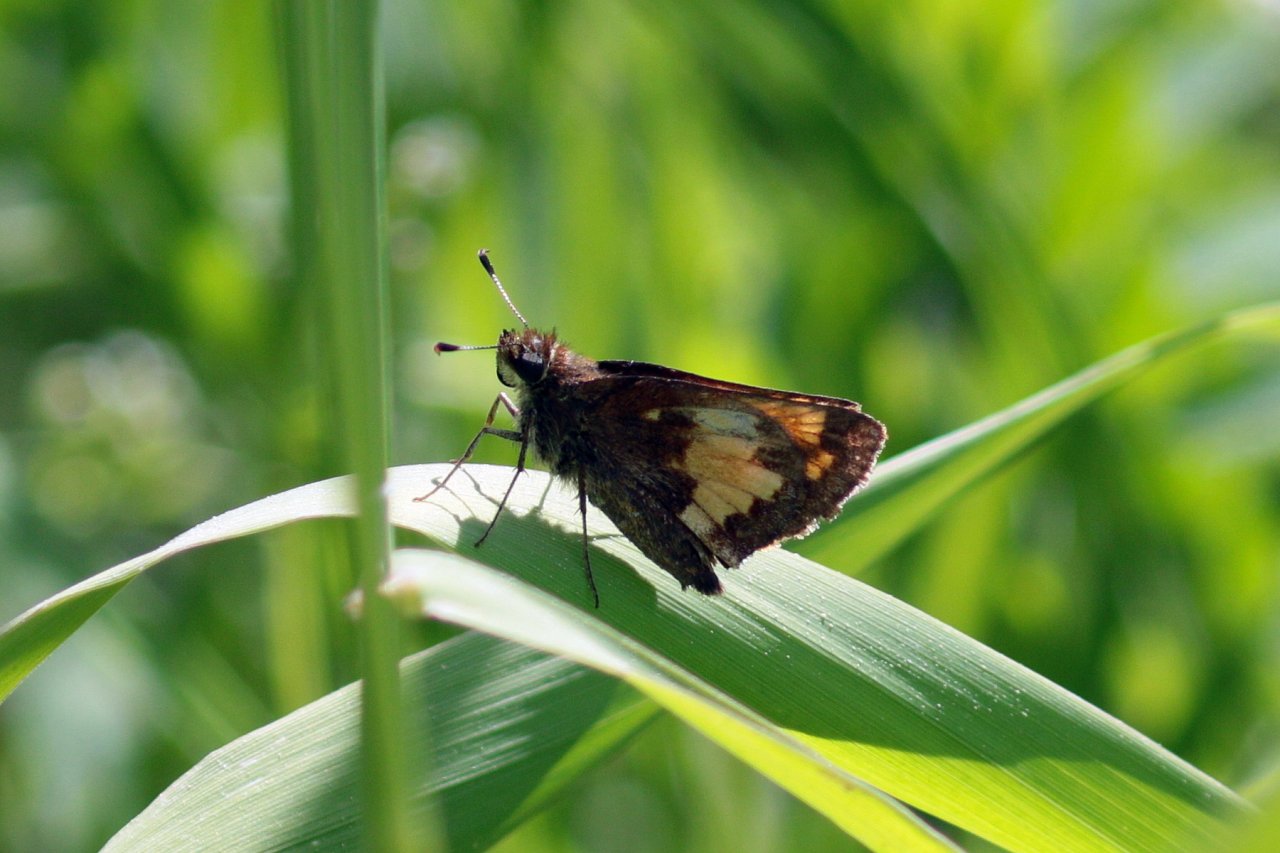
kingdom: Animalia
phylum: Arthropoda
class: Insecta
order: Lepidoptera
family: Hesperiidae
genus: Lon
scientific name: Lon hobomok
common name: Hobomok Skipper
